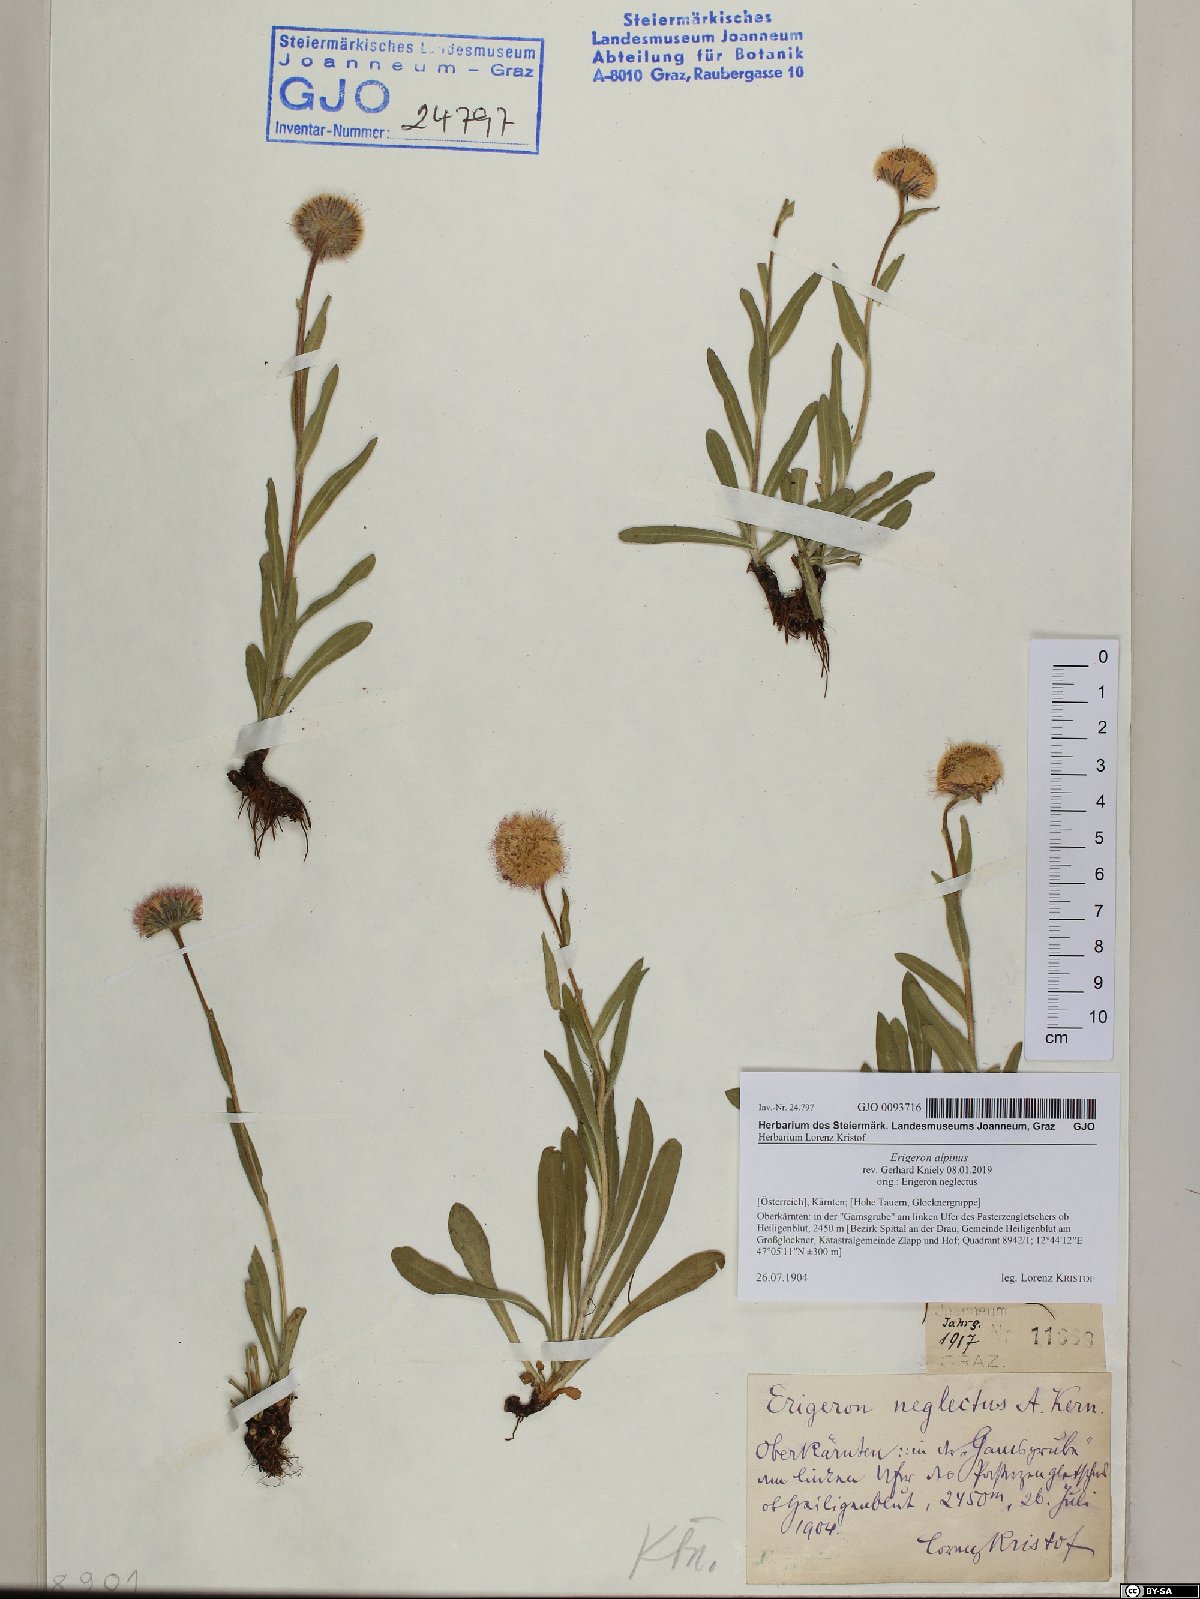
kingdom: Plantae
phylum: Tracheophyta
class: Magnoliopsida
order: Asterales
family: Asteraceae
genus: Erigeron
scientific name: Erigeron alpinus
